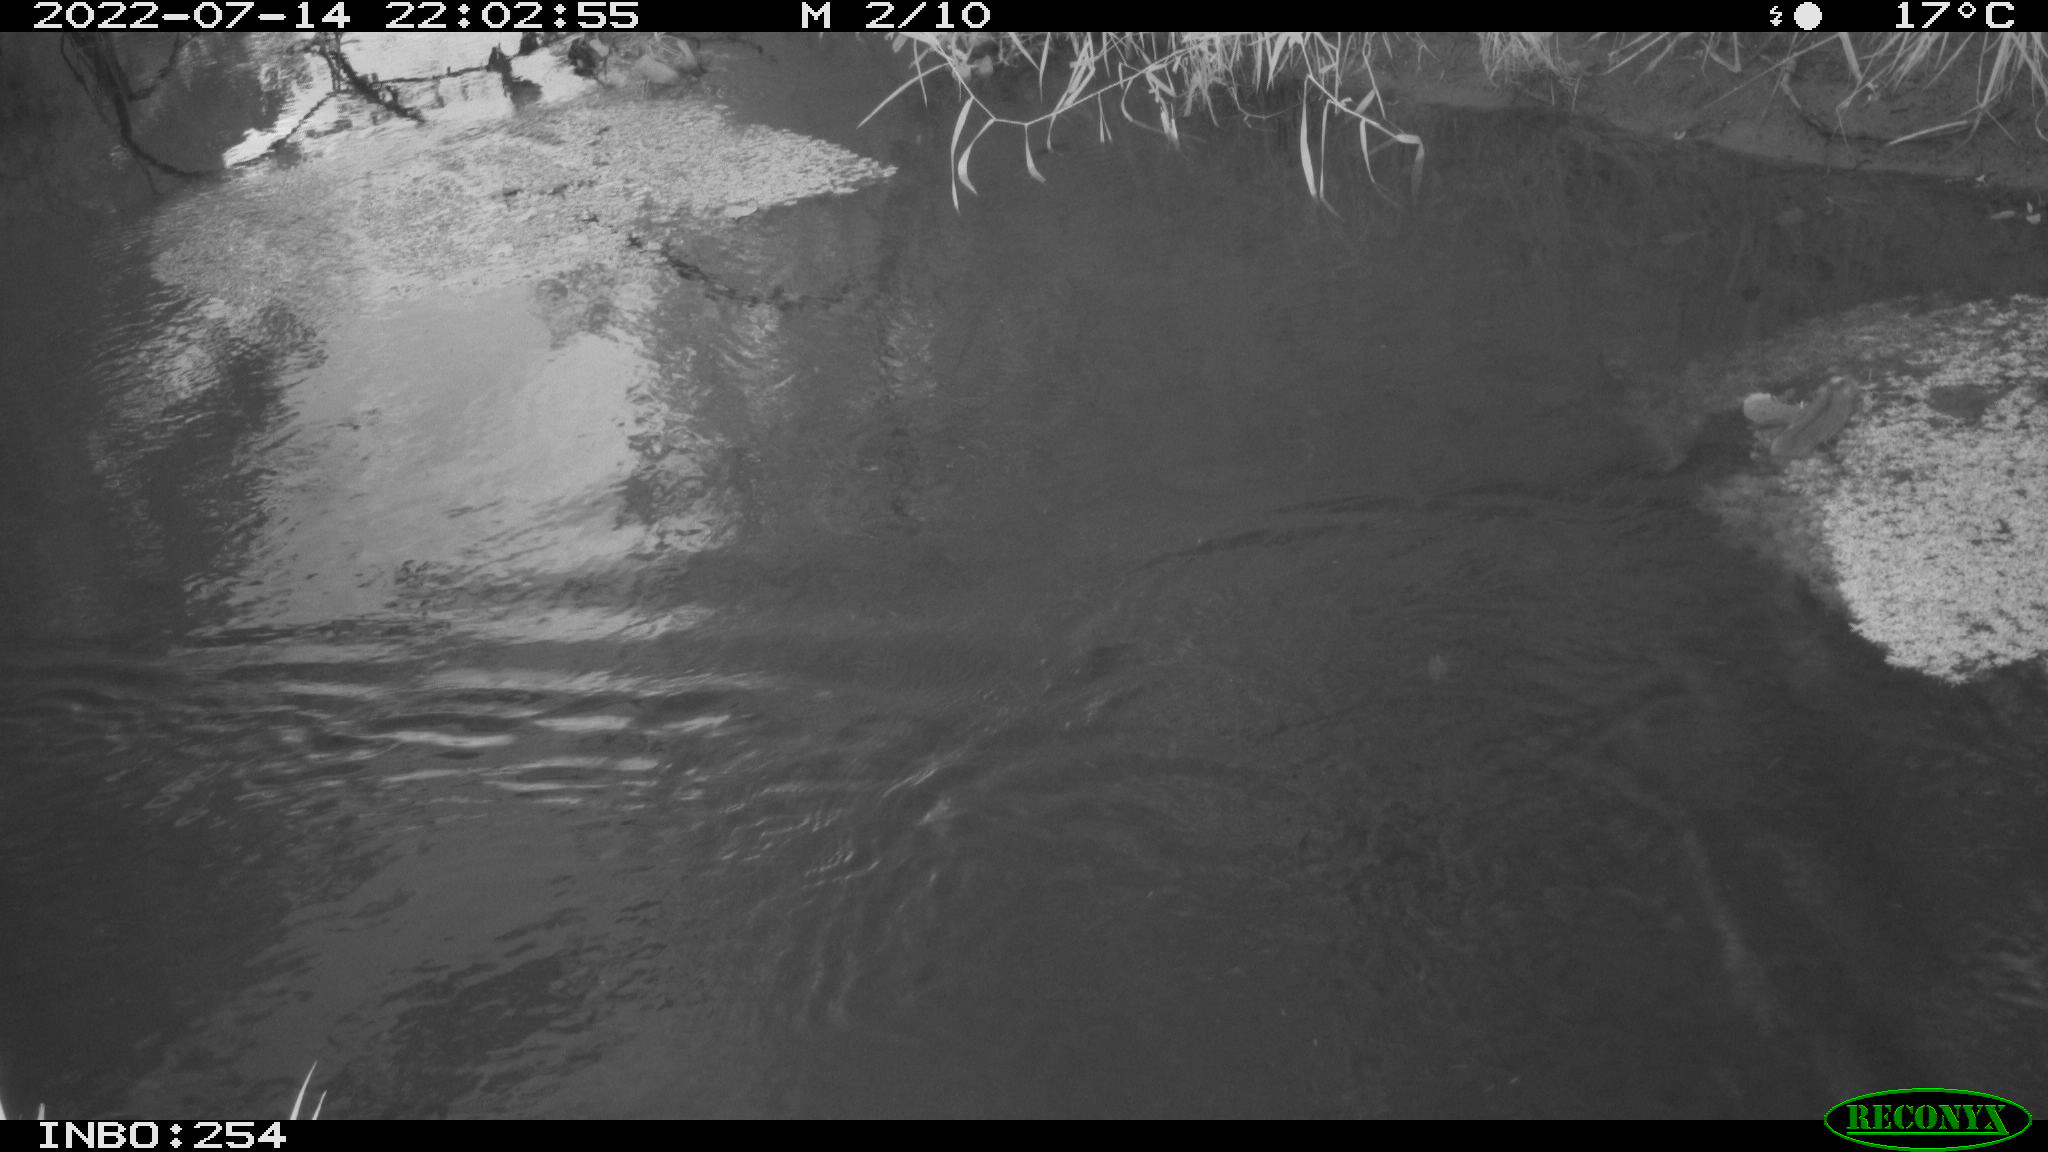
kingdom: Animalia
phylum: Chordata
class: Mammalia
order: Rodentia
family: Muridae
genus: Rattus
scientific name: Rattus norvegicus
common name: Brown rat
